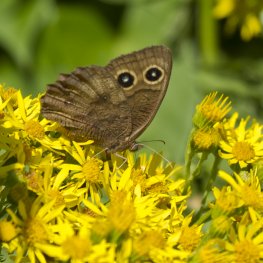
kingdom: Animalia
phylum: Arthropoda
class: Insecta
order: Lepidoptera
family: Nymphalidae
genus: Cercyonis
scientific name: Cercyonis pegala
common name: Common Wood-Nymph
